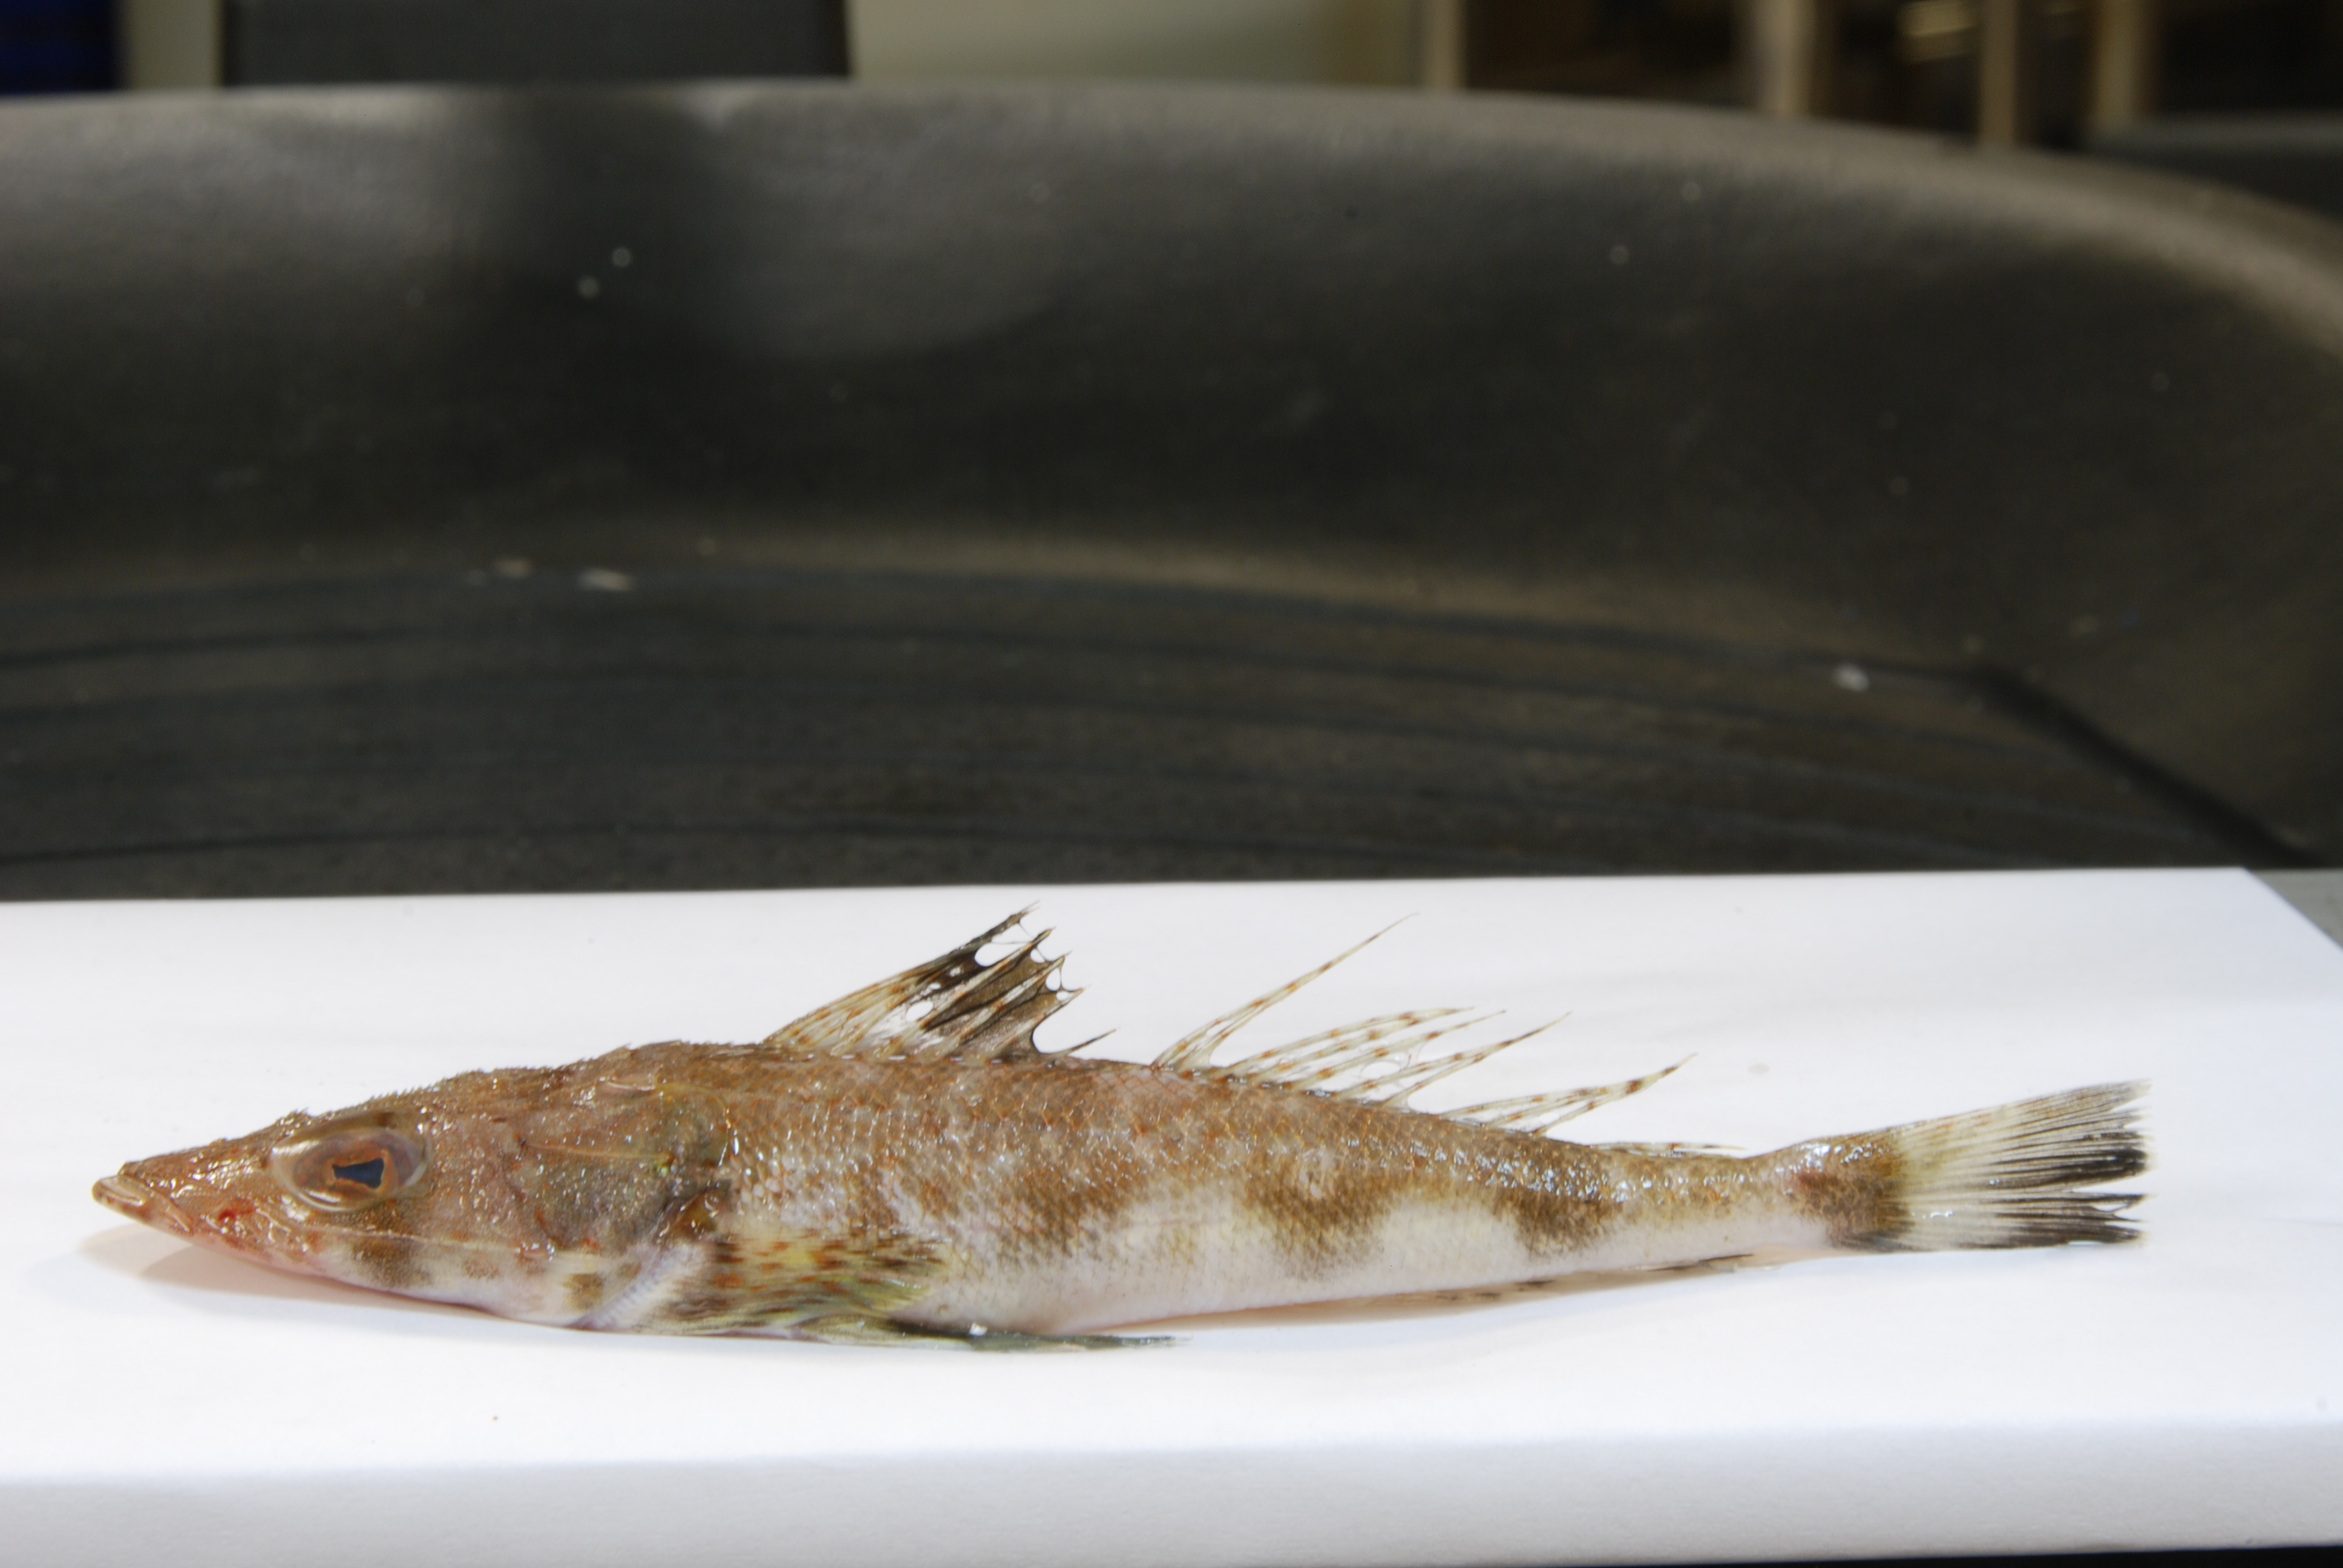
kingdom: Animalia
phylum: Chordata
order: Scorpaeniformes
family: Platycephalidae
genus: Rogadius
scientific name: Rogadius pristiger
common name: Thorny flathead
